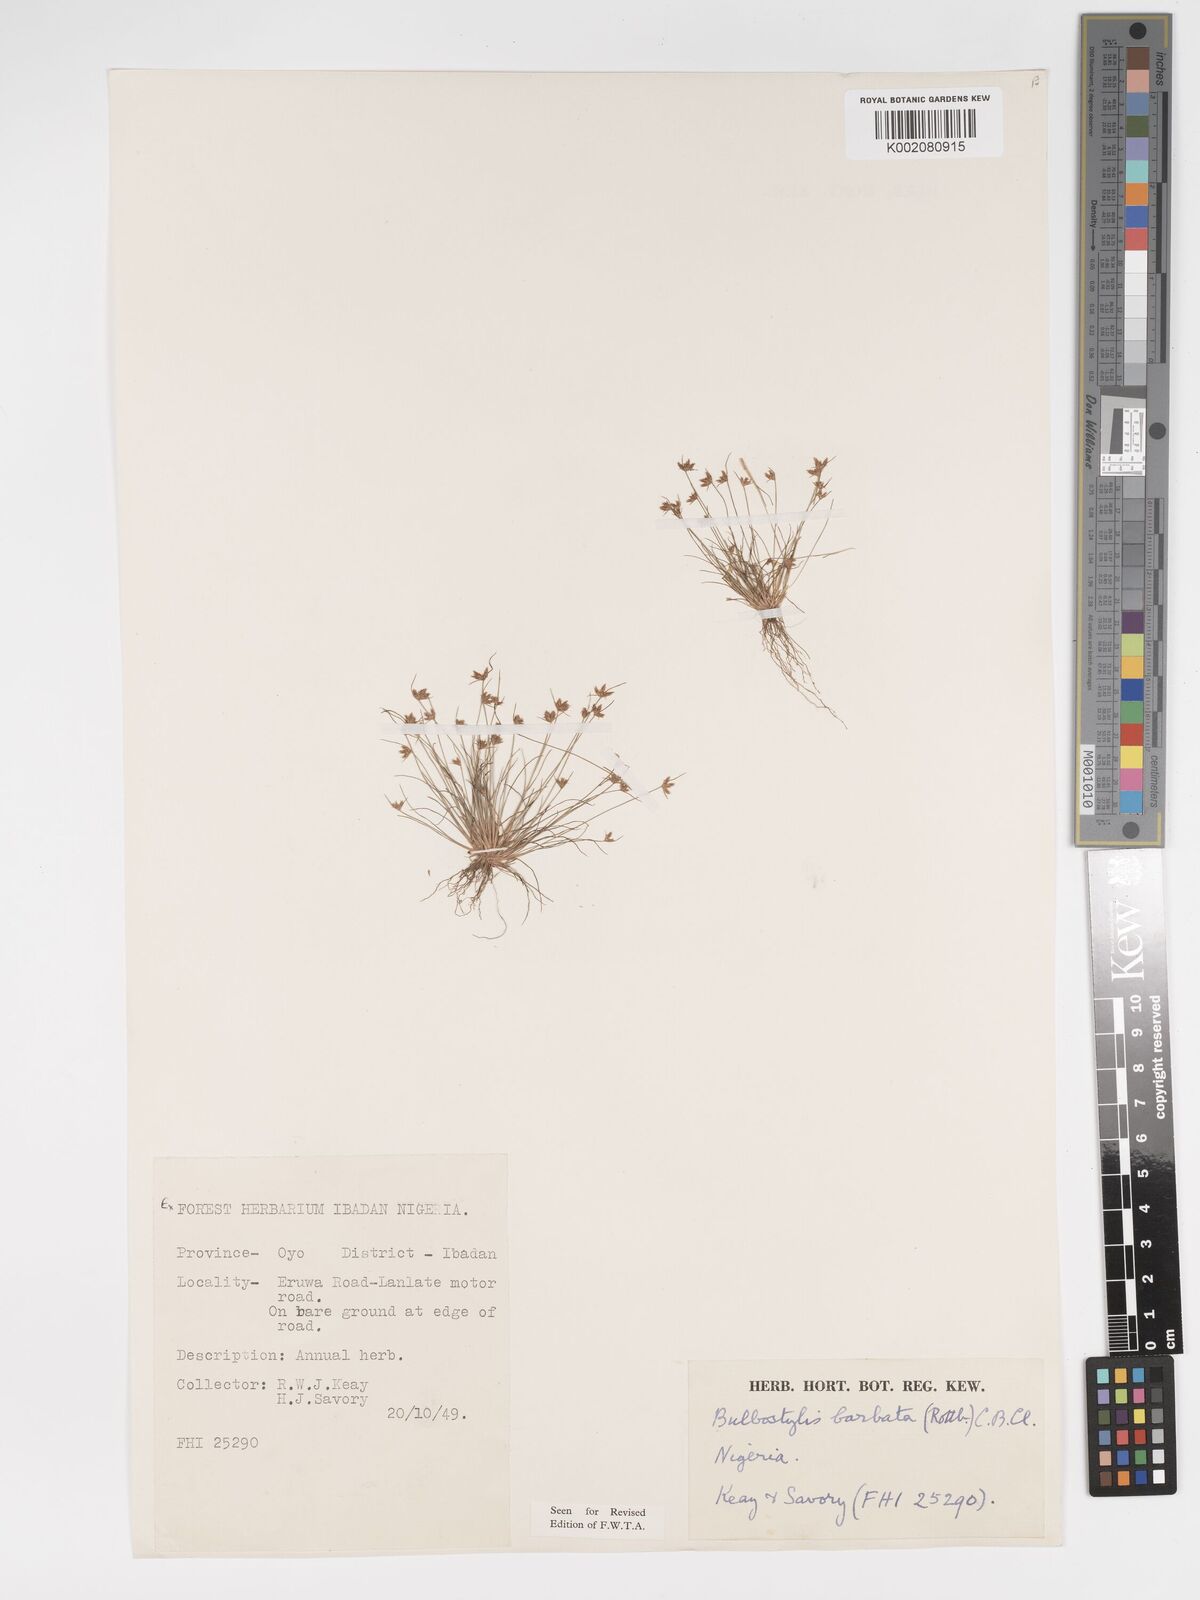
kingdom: Plantae
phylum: Tracheophyta
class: Liliopsida
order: Poales
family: Cyperaceae
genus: Bulbostylis
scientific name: Bulbostylis barbata
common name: Watergrass
